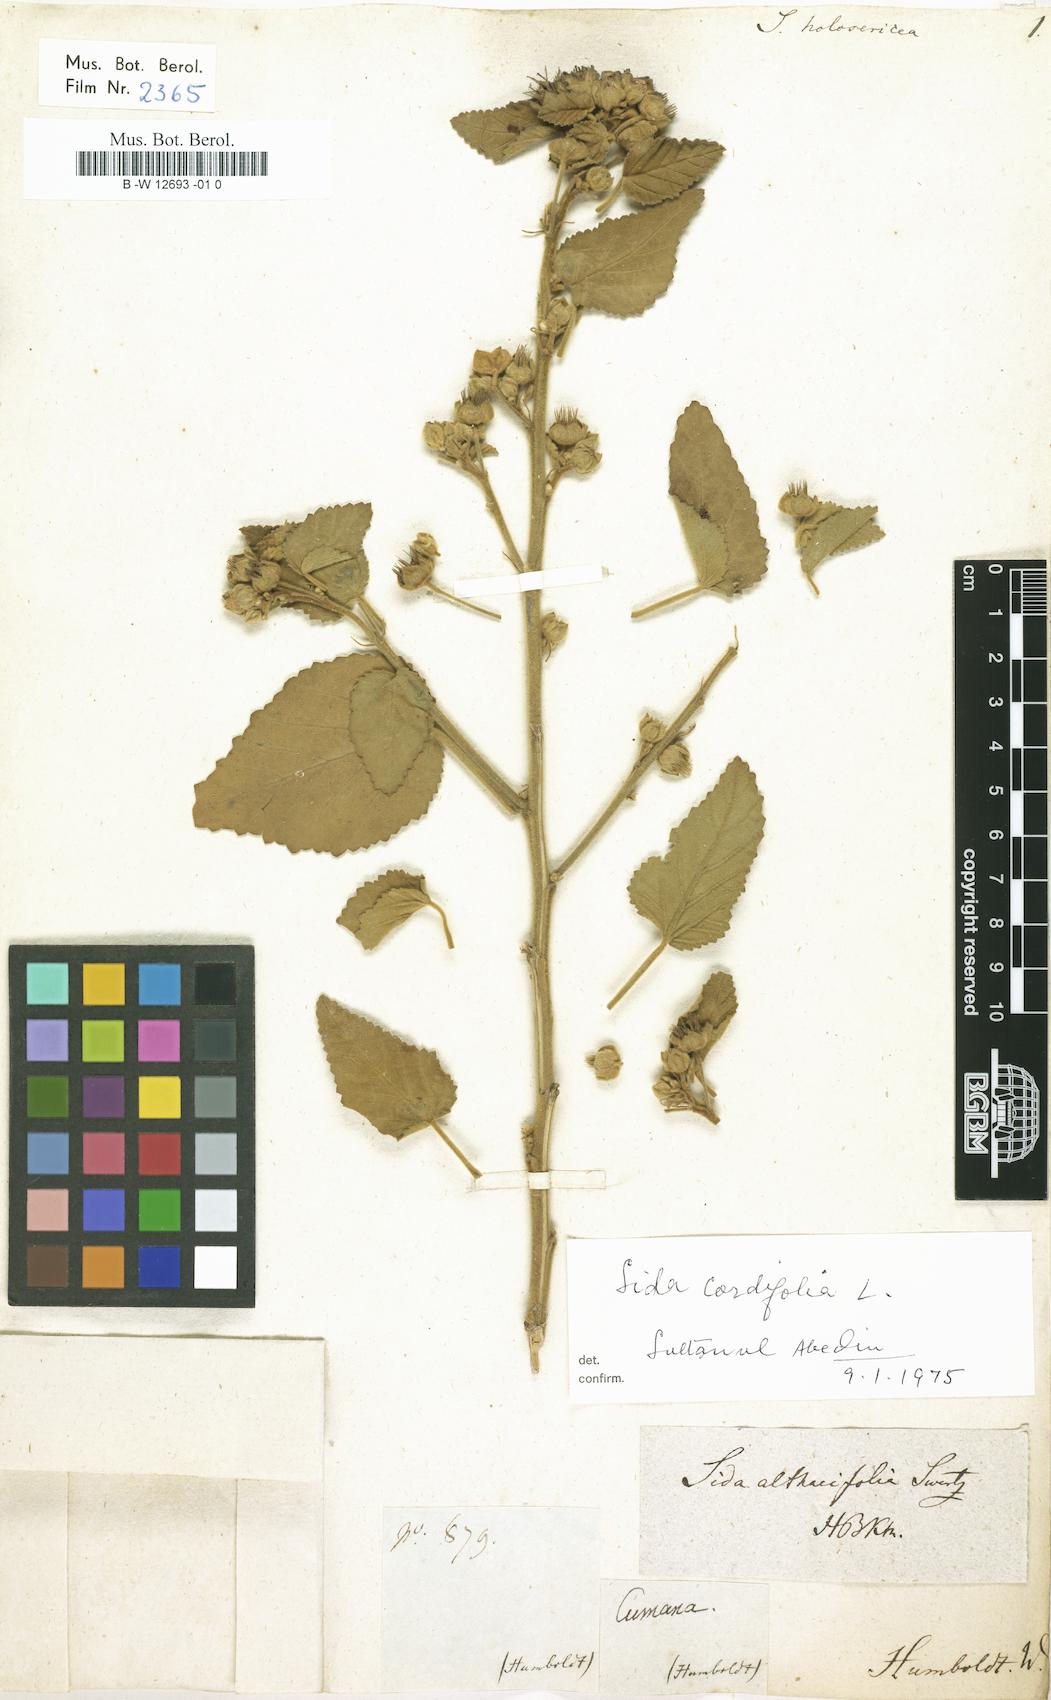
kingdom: Plantae
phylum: Tracheophyta
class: Magnoliopsida
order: Malvales
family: Malvaceae
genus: Sida
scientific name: Sida cordifolia
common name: Ilima
